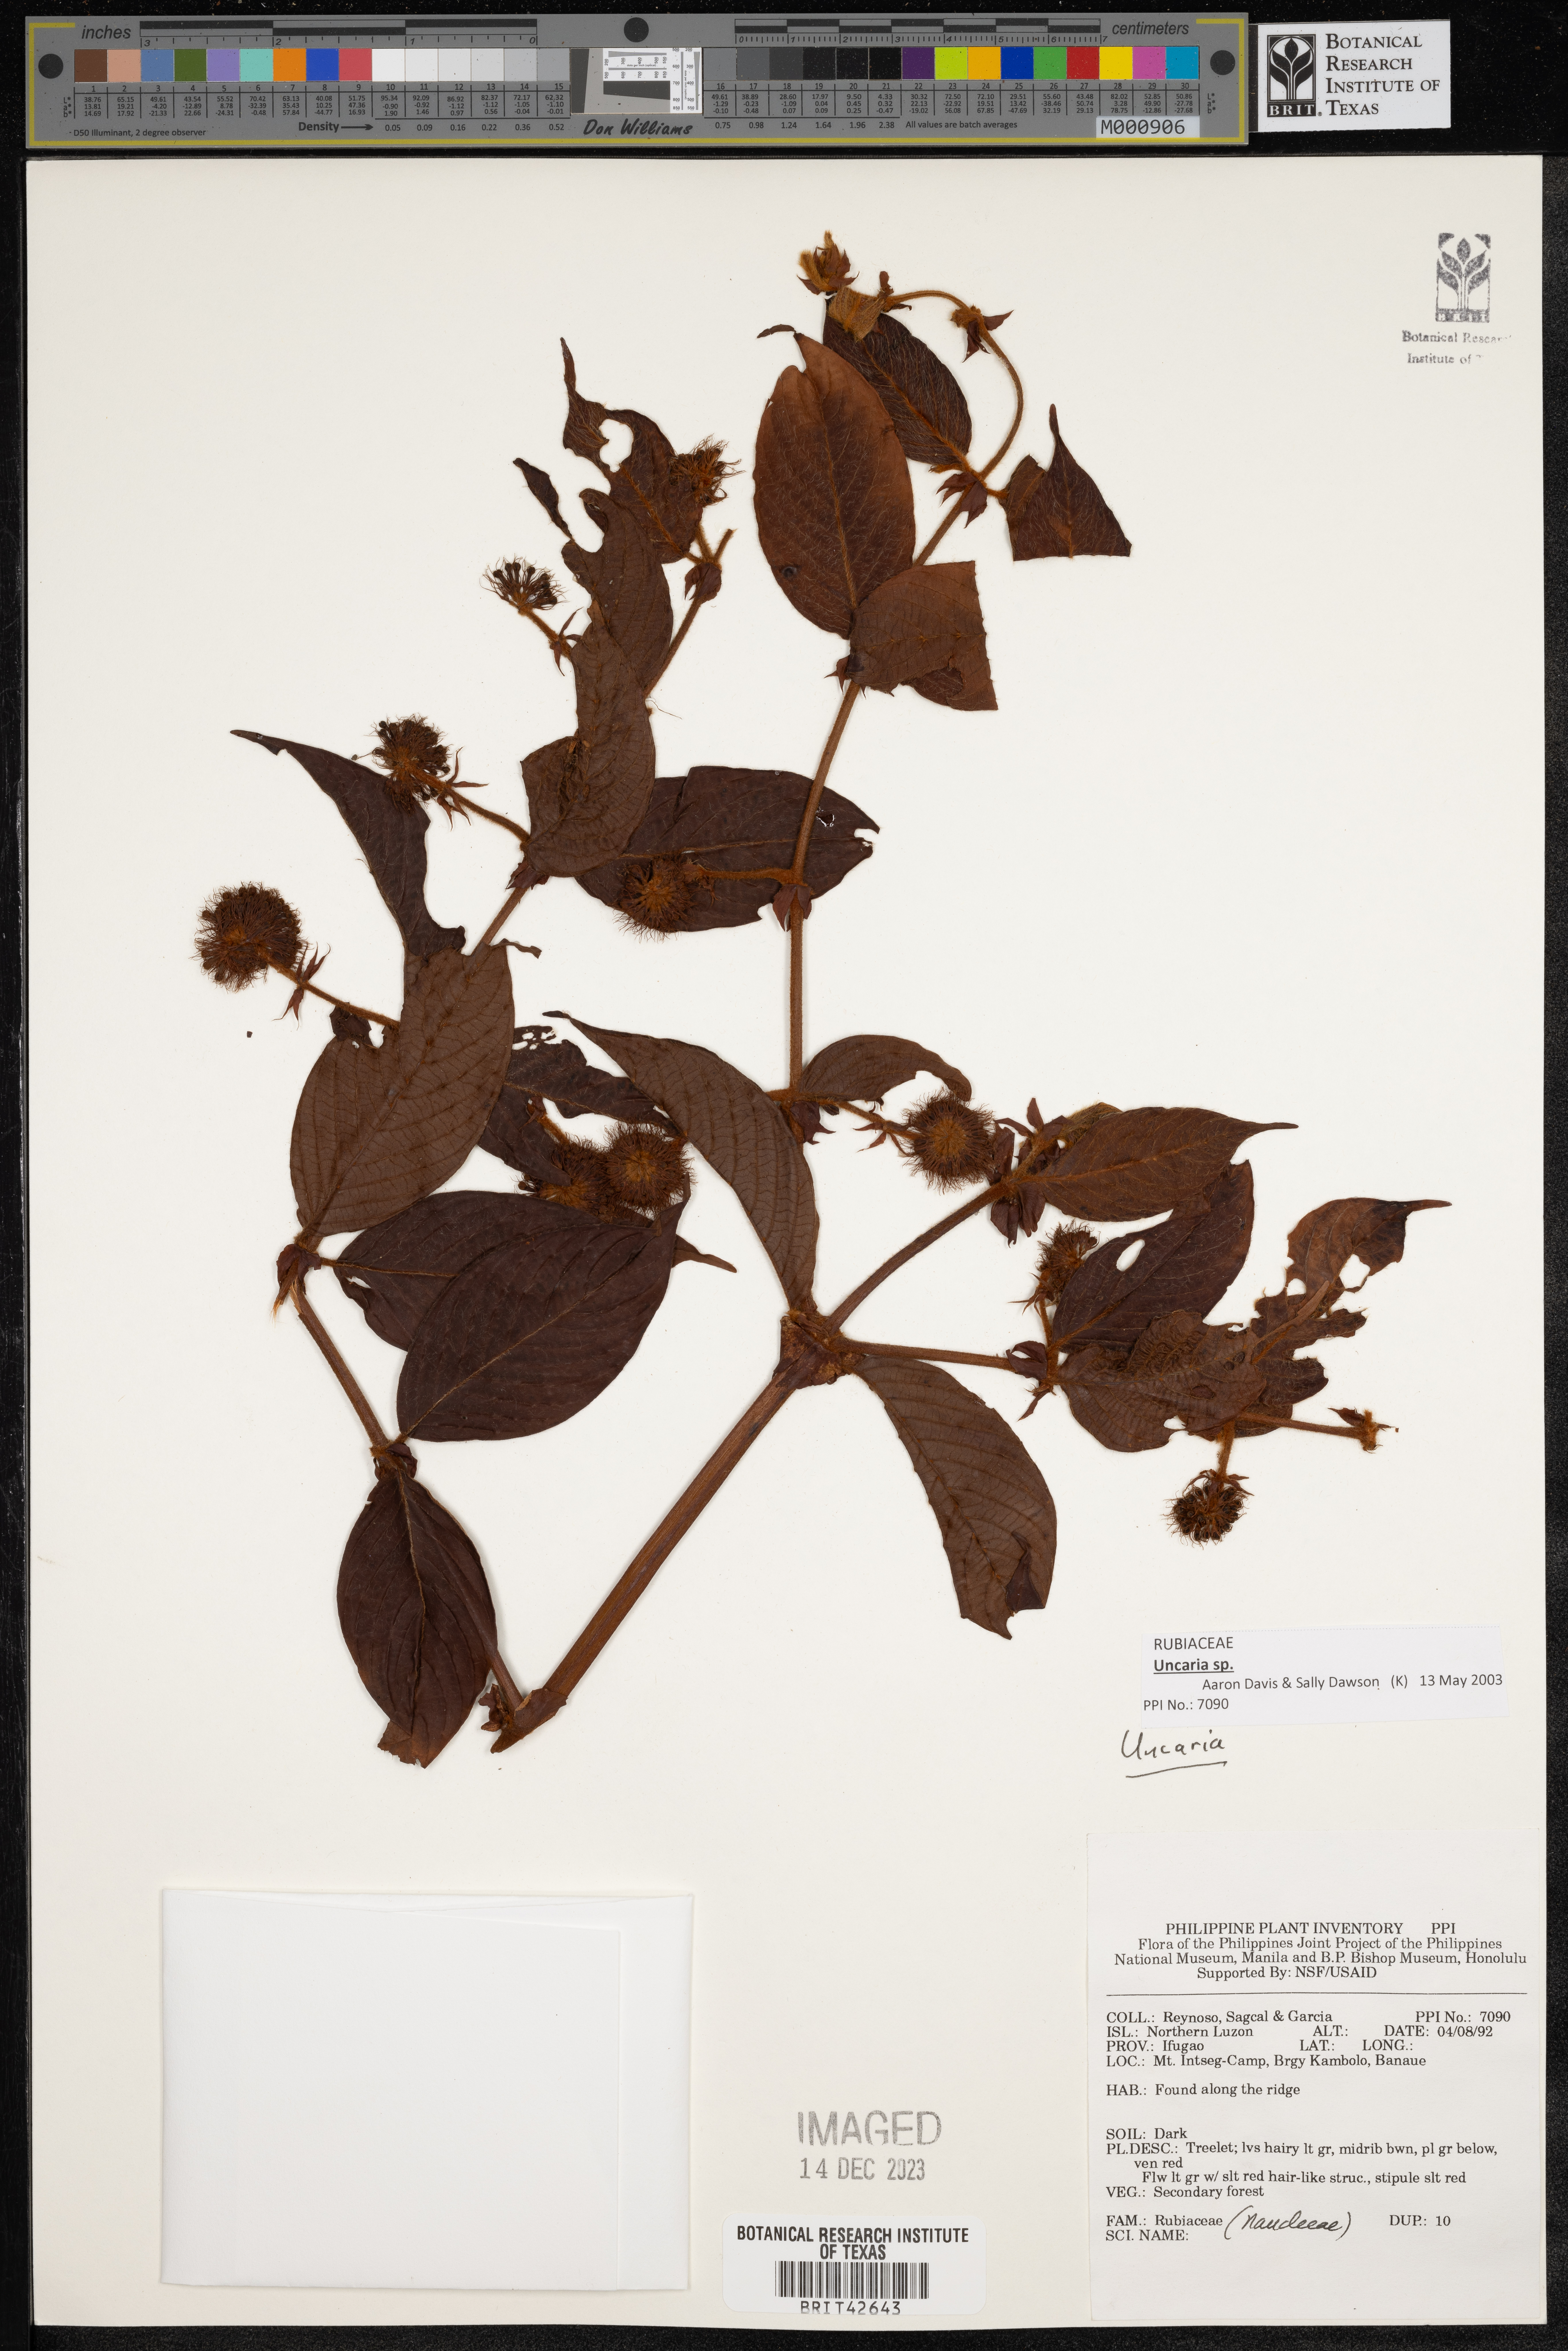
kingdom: Plantae
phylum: Tracheophyta
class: Magnoliopsida
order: Gentianales
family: Rubiaceae
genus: Uncaria
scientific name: Uncaria
